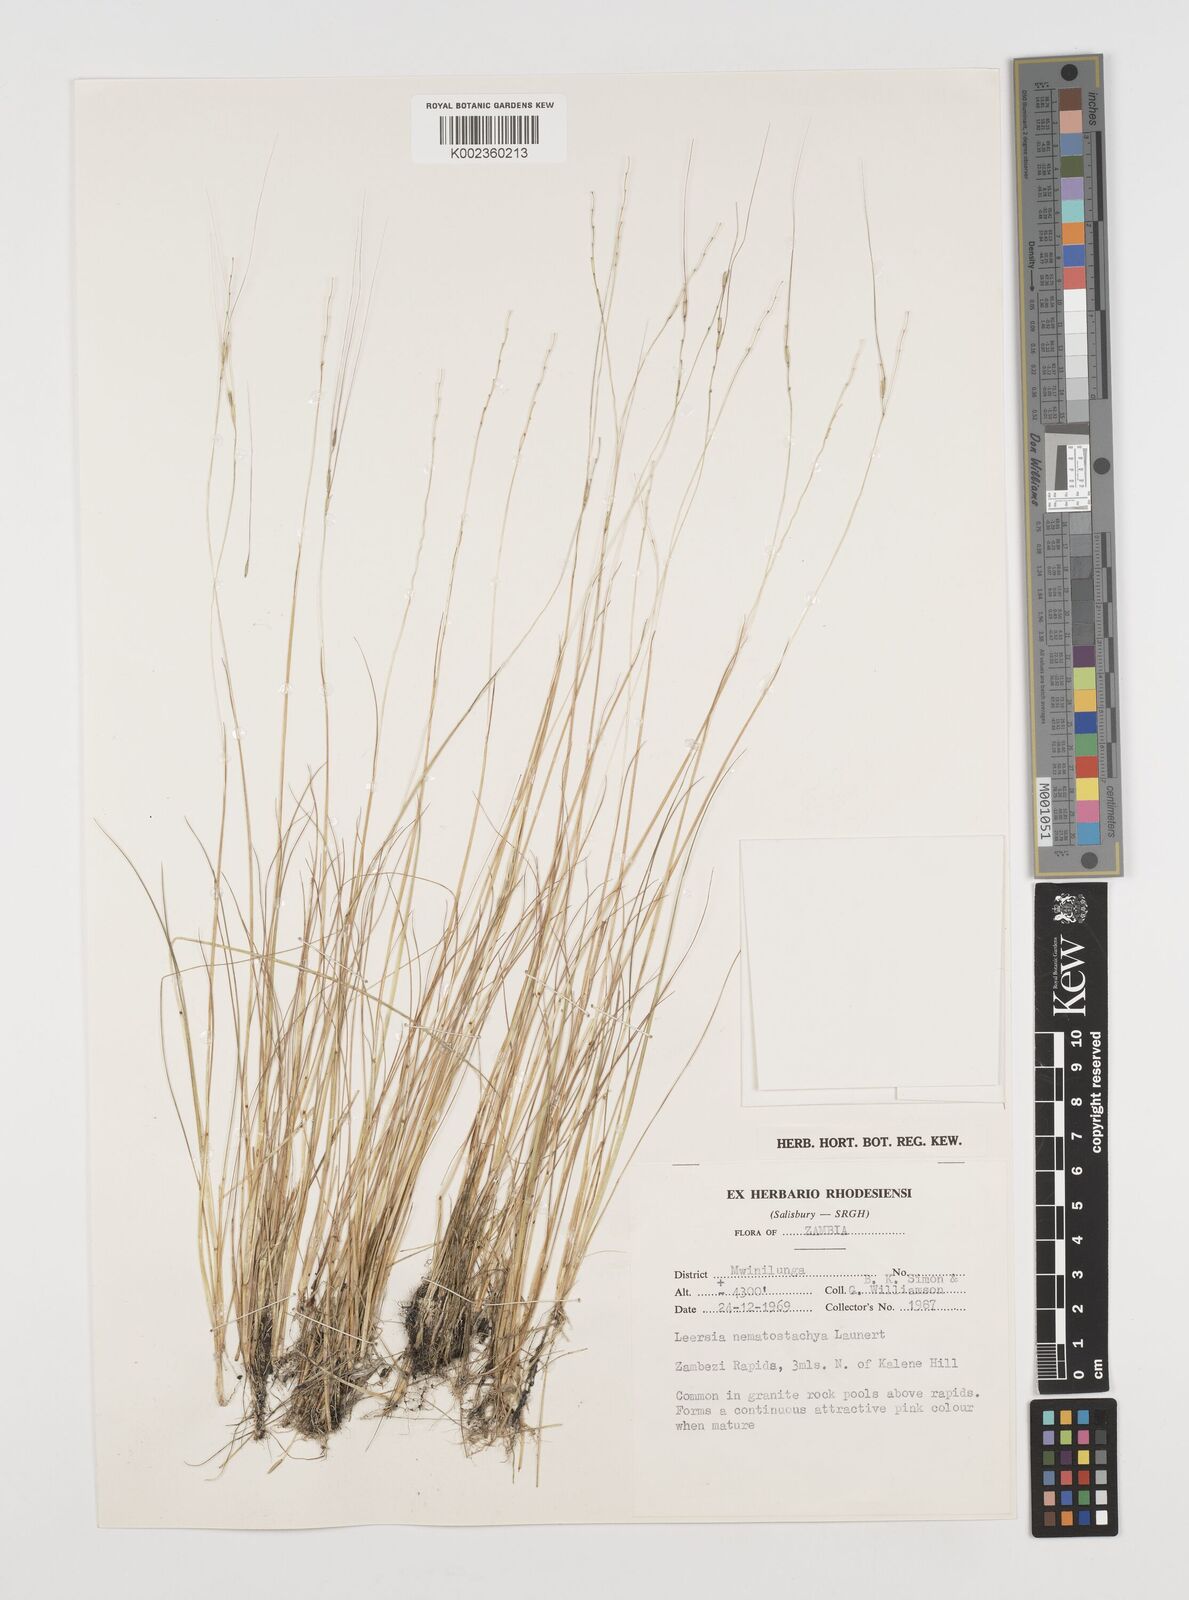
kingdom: Plantae
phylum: Tracheophyta
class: Liliopsida
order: Poales
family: Poaceae
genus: Leersia
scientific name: Leersia nematostachya
